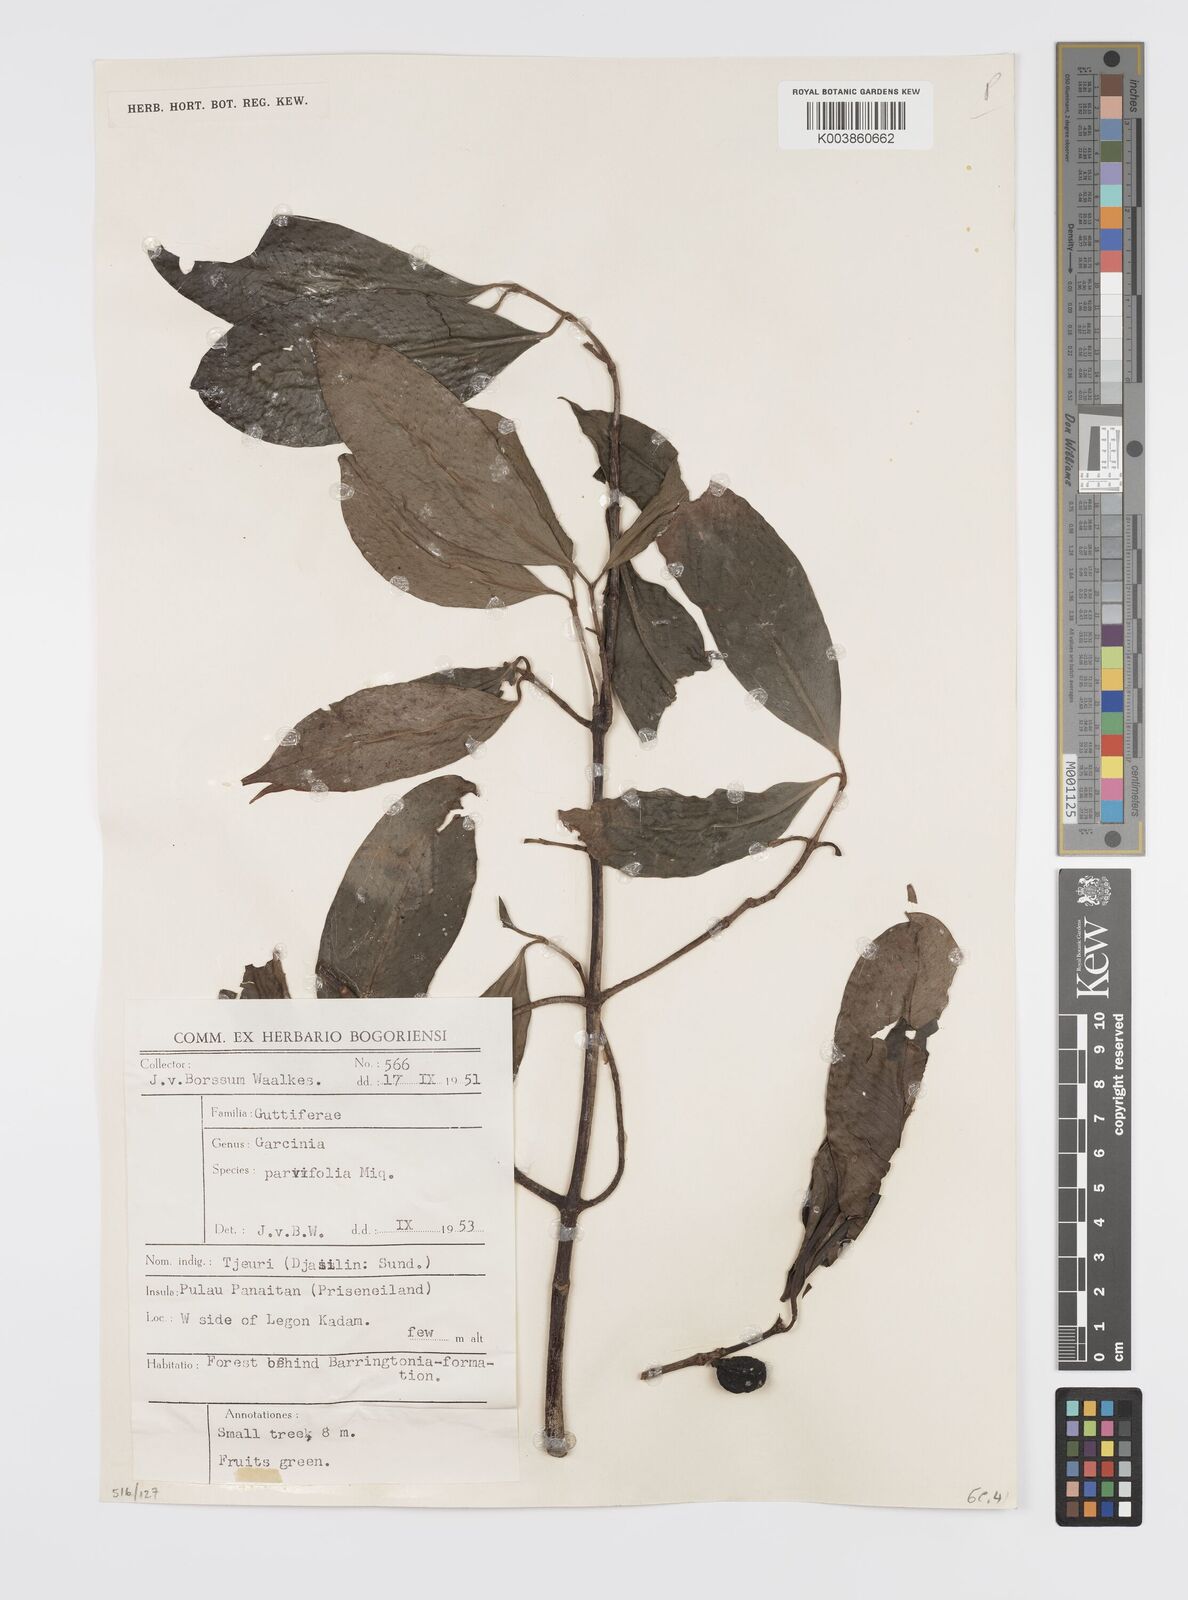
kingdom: Plantae
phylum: Tracheophyta
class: Magnoliopsida
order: Malpighiales
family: Clusiaceae
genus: Garcinia
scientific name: Garcinia parvifolia
